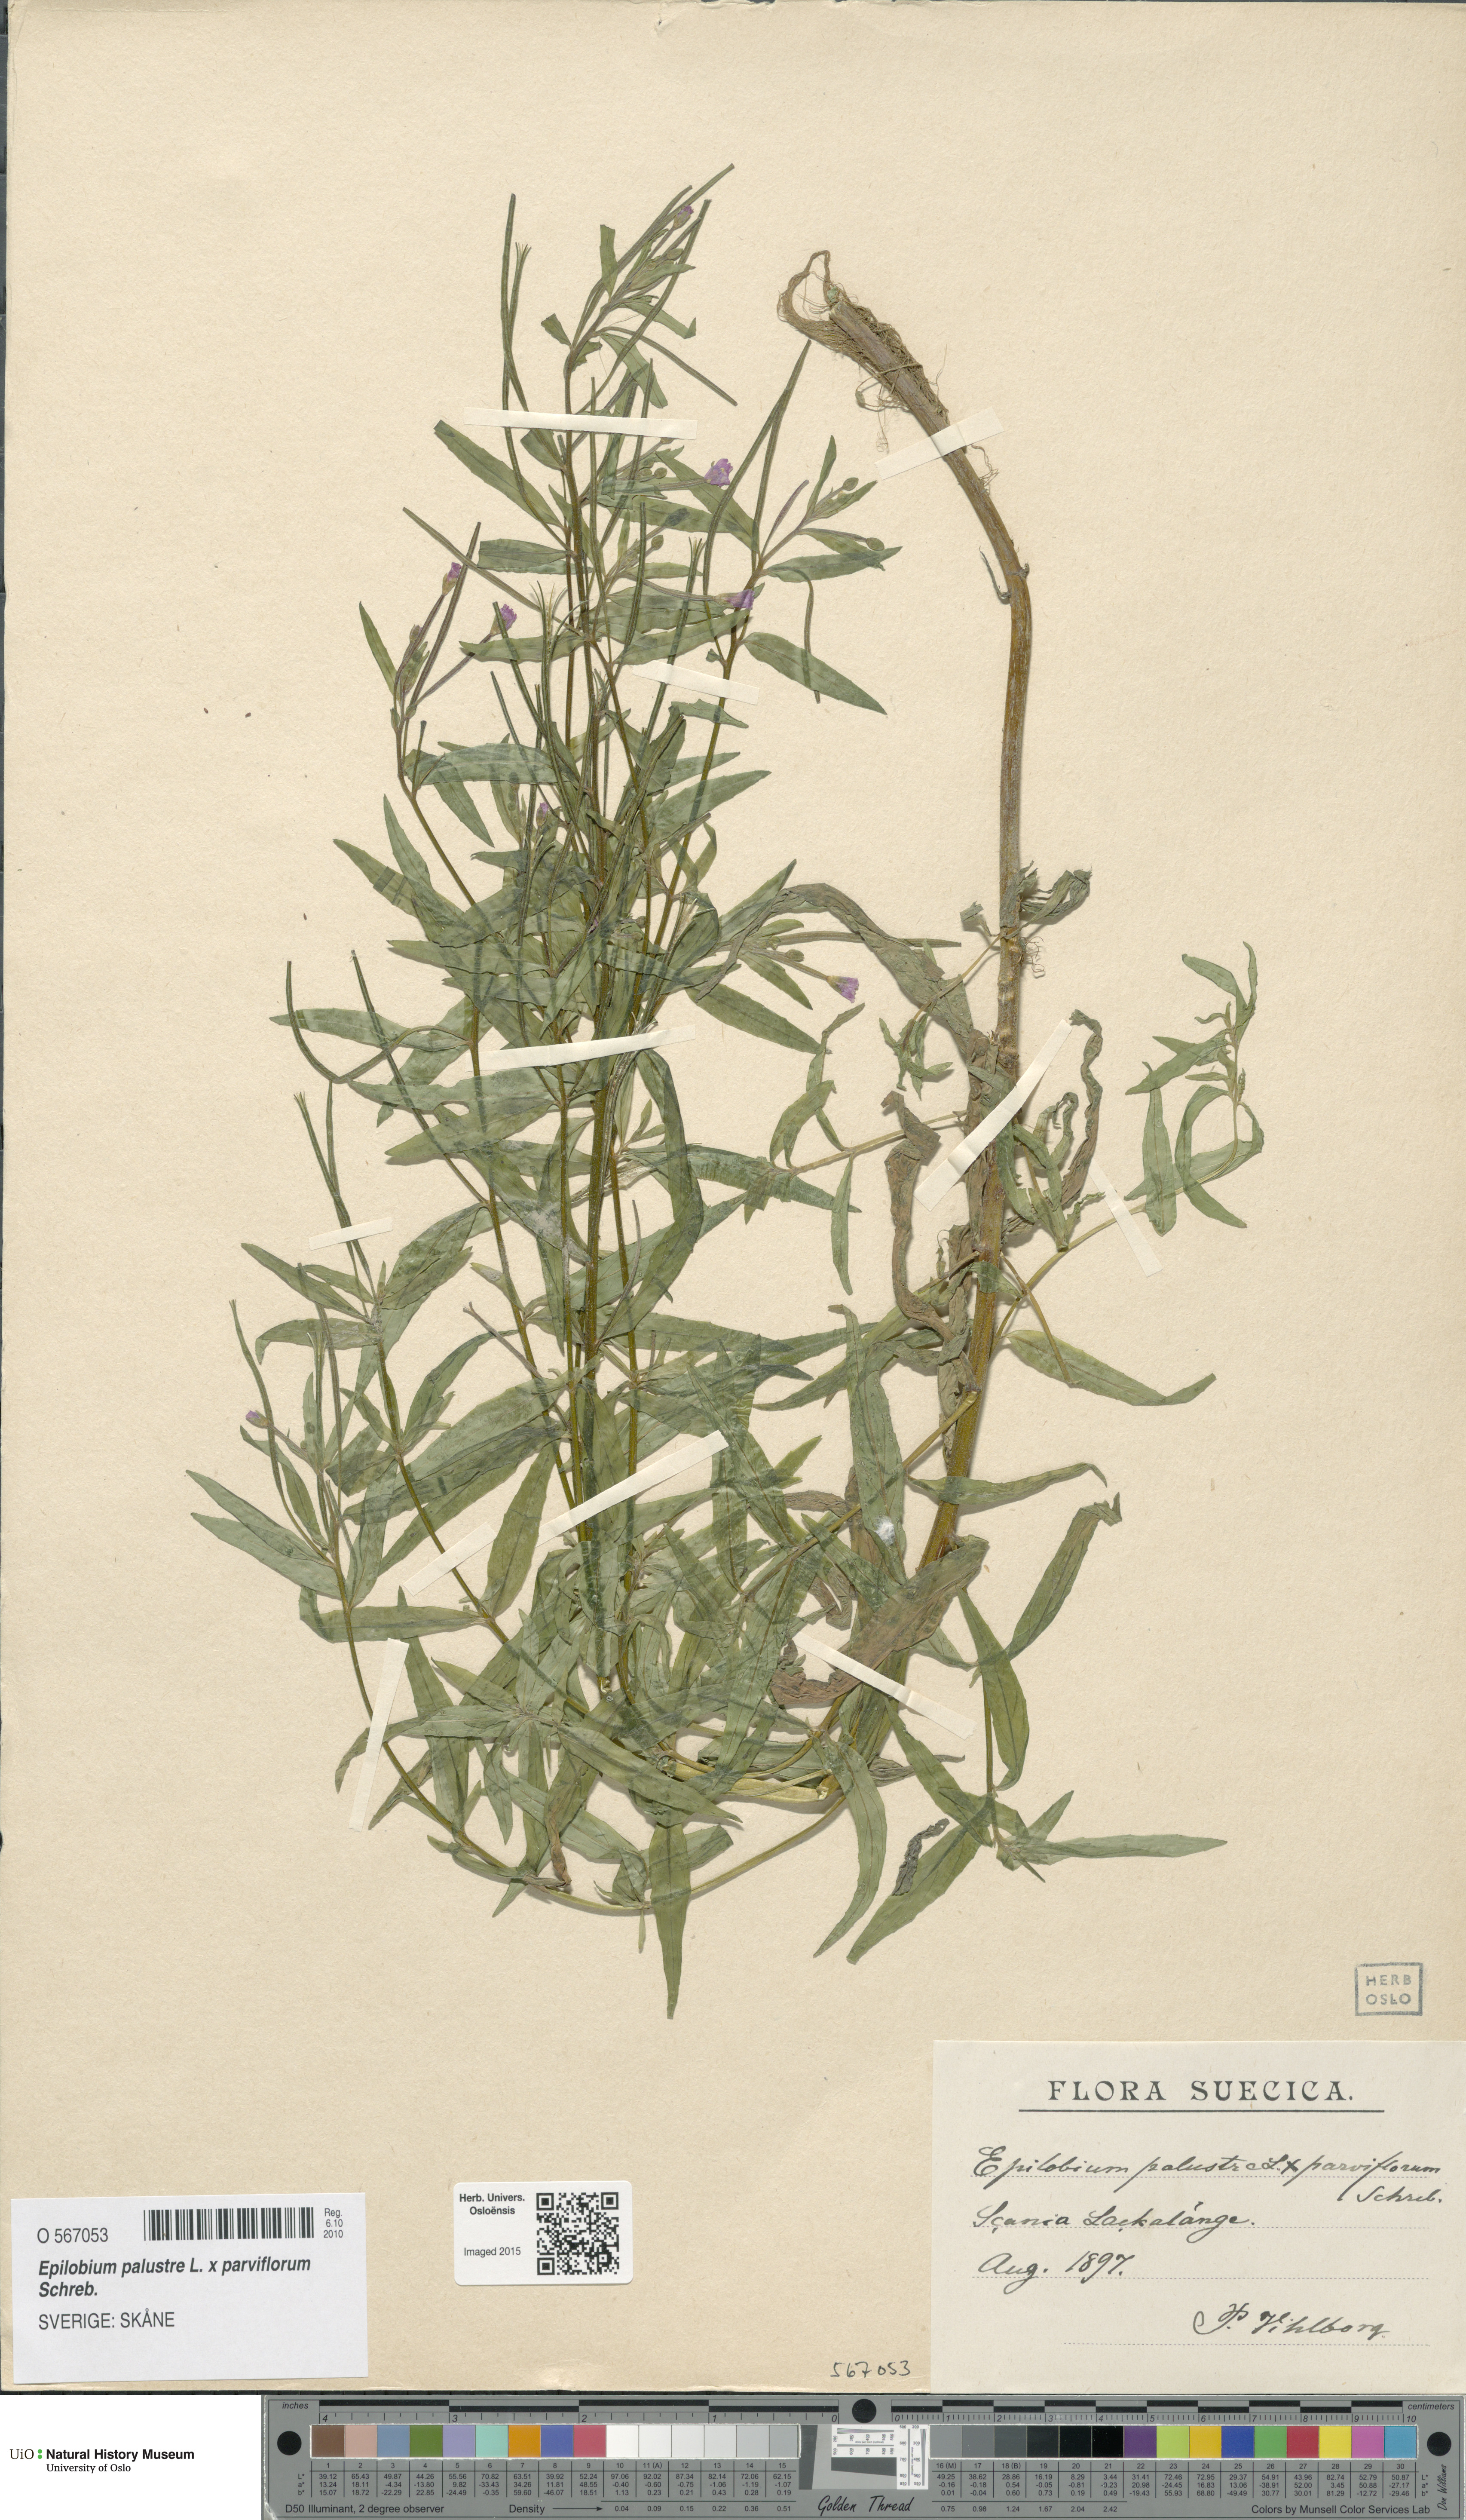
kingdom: Plantae
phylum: Tracheophyta
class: Magnoliopsida
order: Myrtales
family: Onagraceae
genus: Epilobium
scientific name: Epilobium
